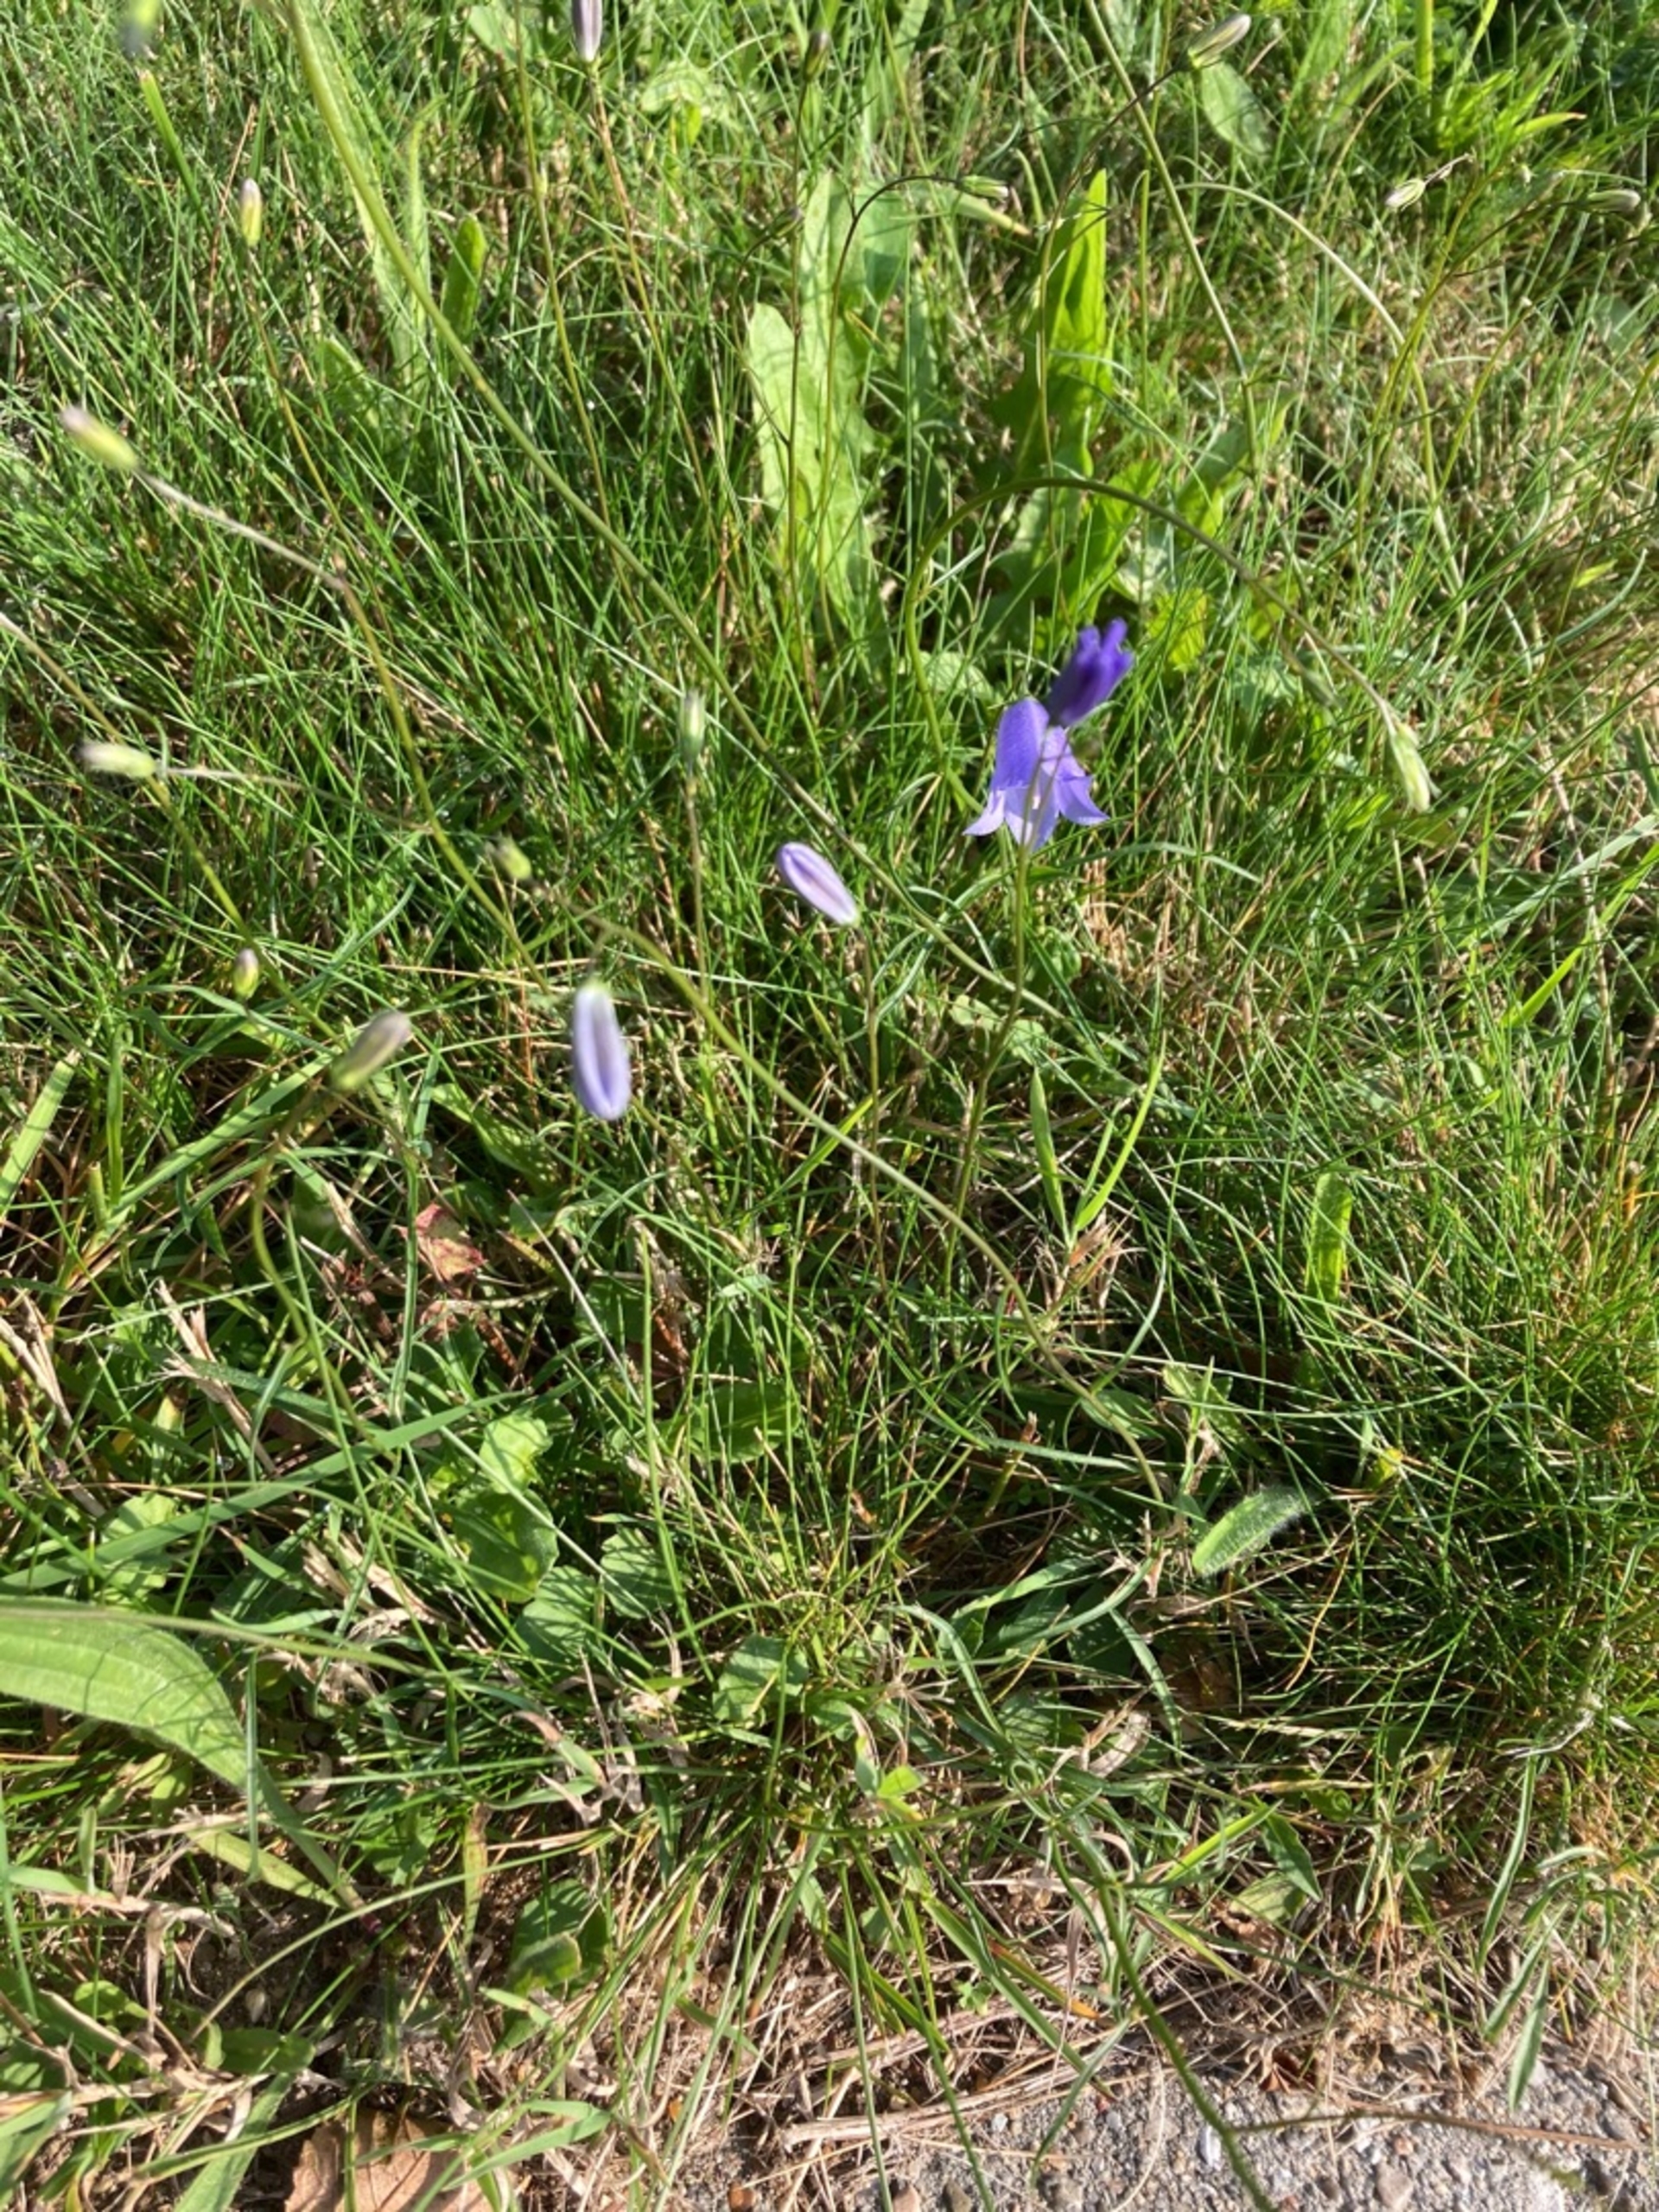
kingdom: Plantae
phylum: Tracheophyta
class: Magnoliopsida
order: Asterales
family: Campanulaceae
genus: Campanula
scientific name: Campanula rotundifolia
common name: Liden klokke
